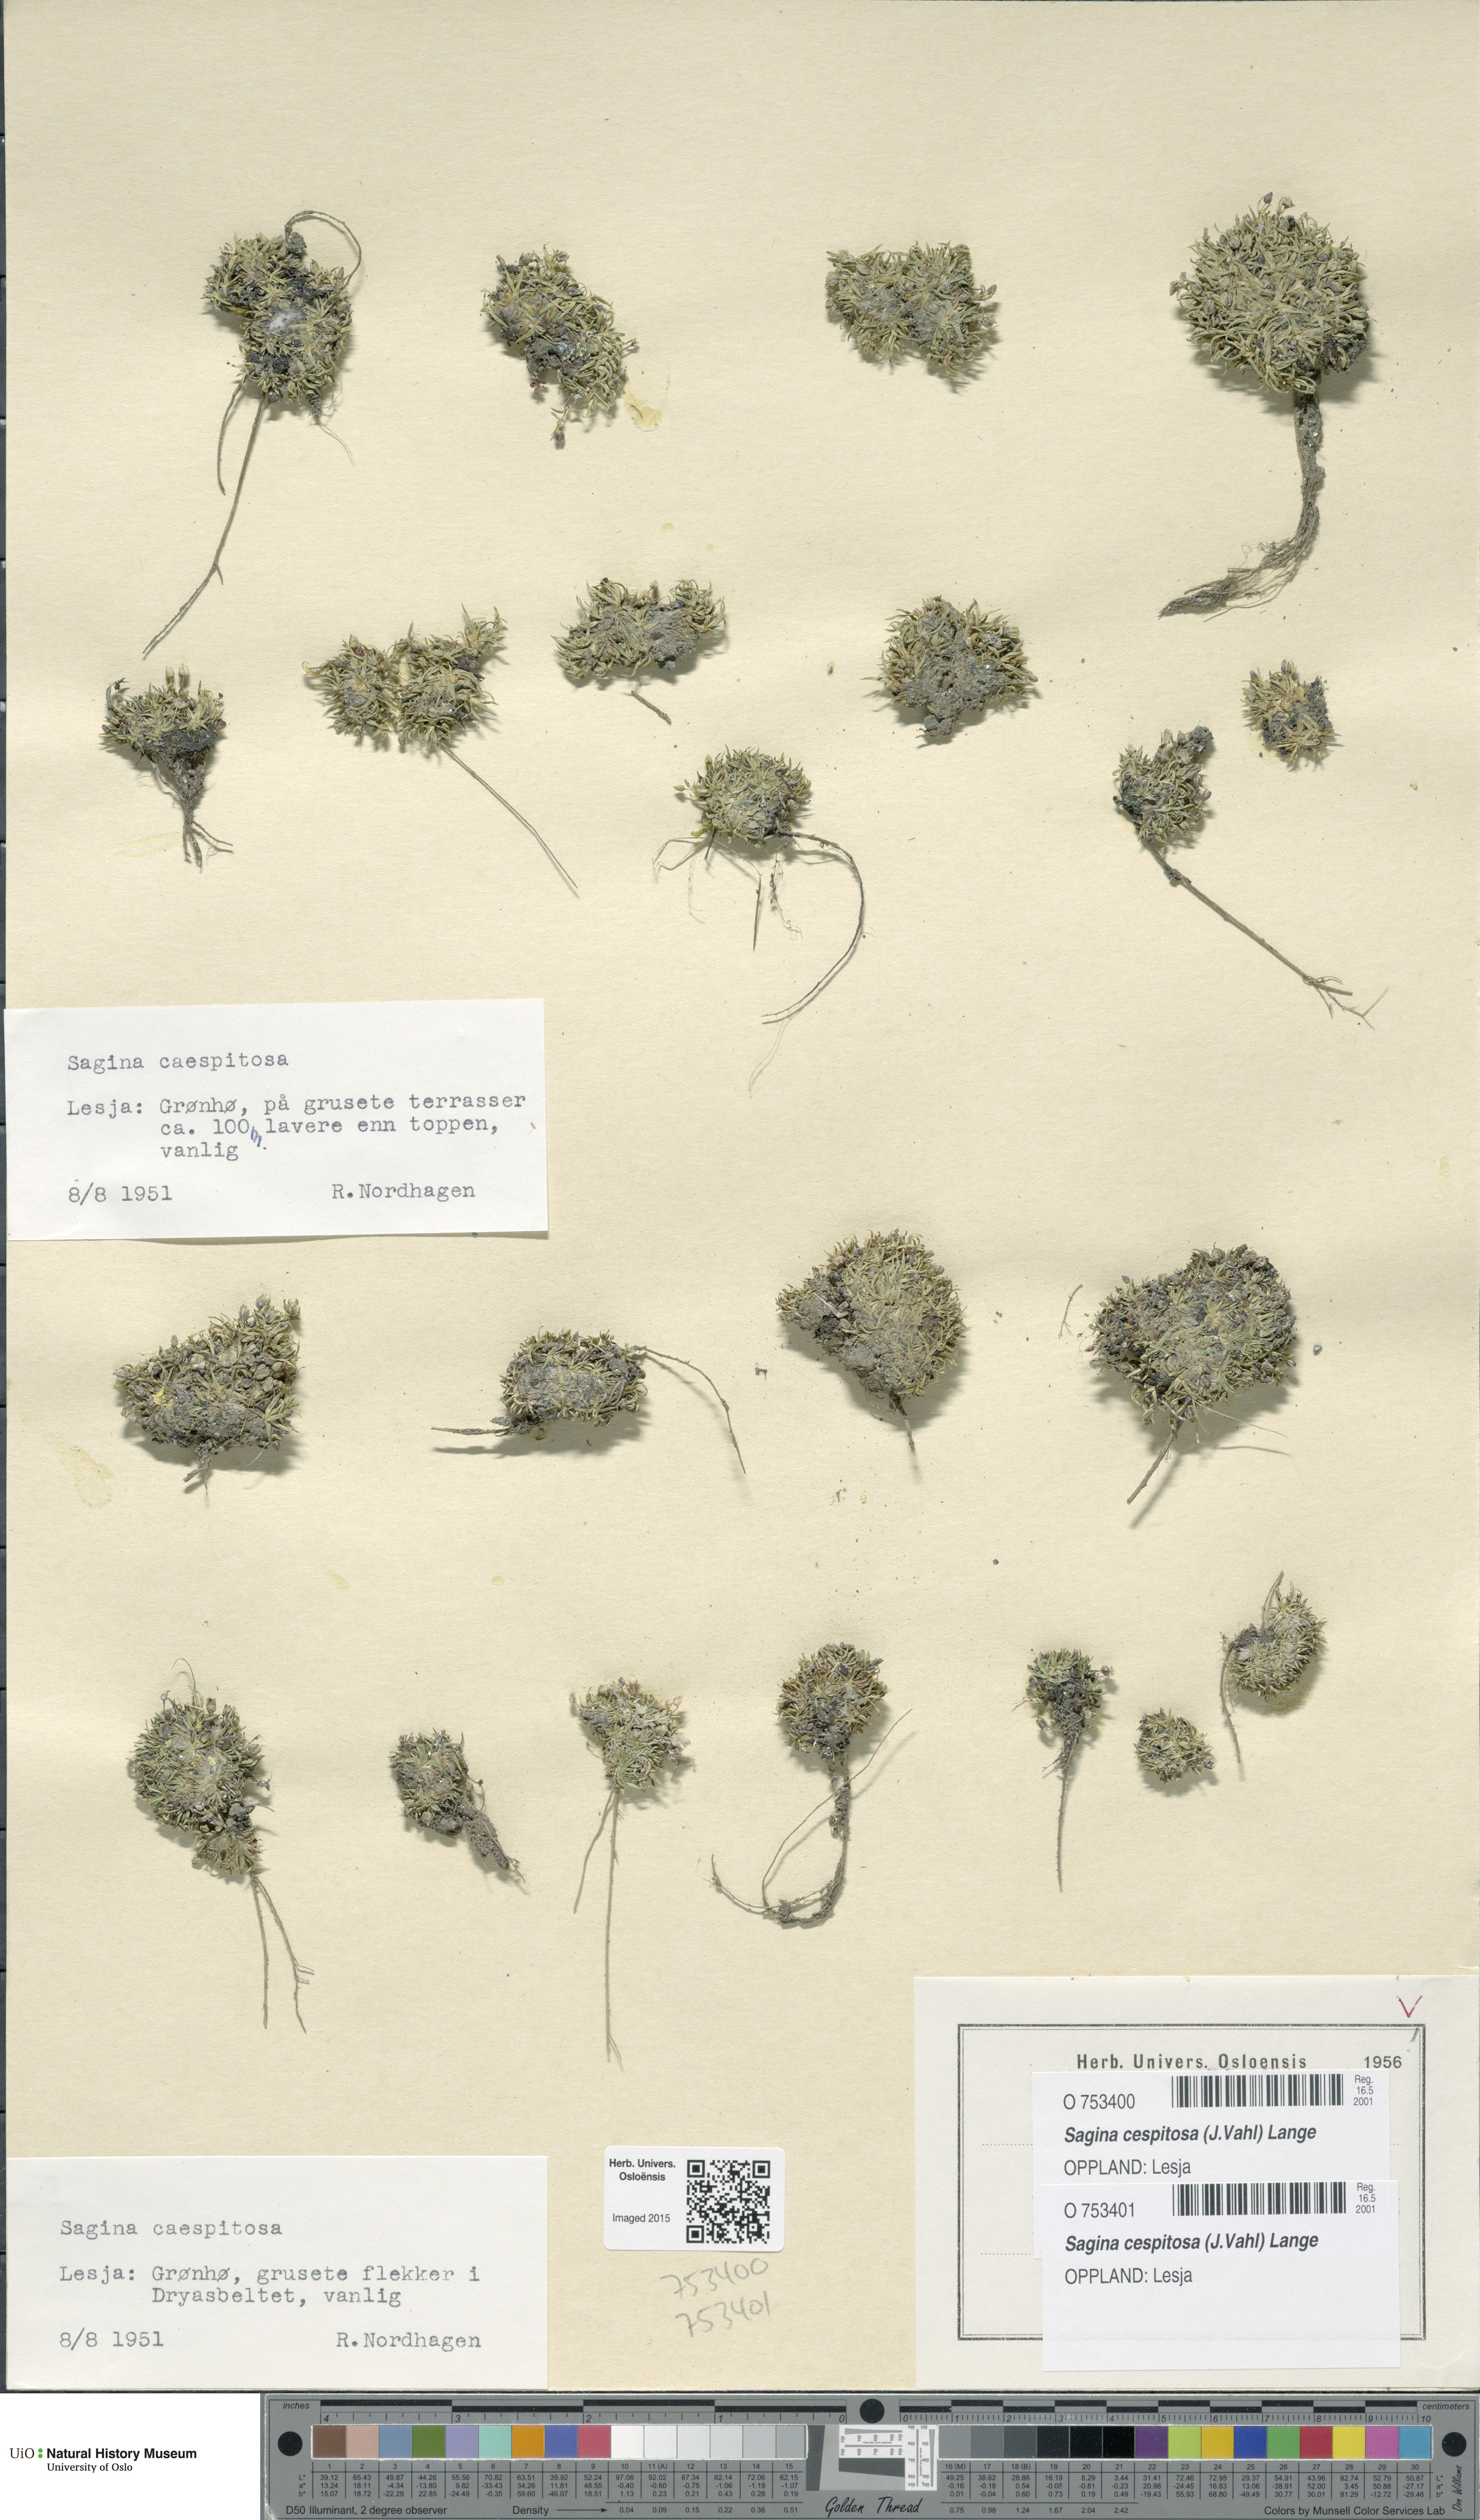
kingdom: Plantae
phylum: Tracheophyta
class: Magnoliopsida
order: Caryophyllales
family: Caryophyllaceae
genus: Sagina
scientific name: Sagina caespitosa
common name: Tufted pearlwort
